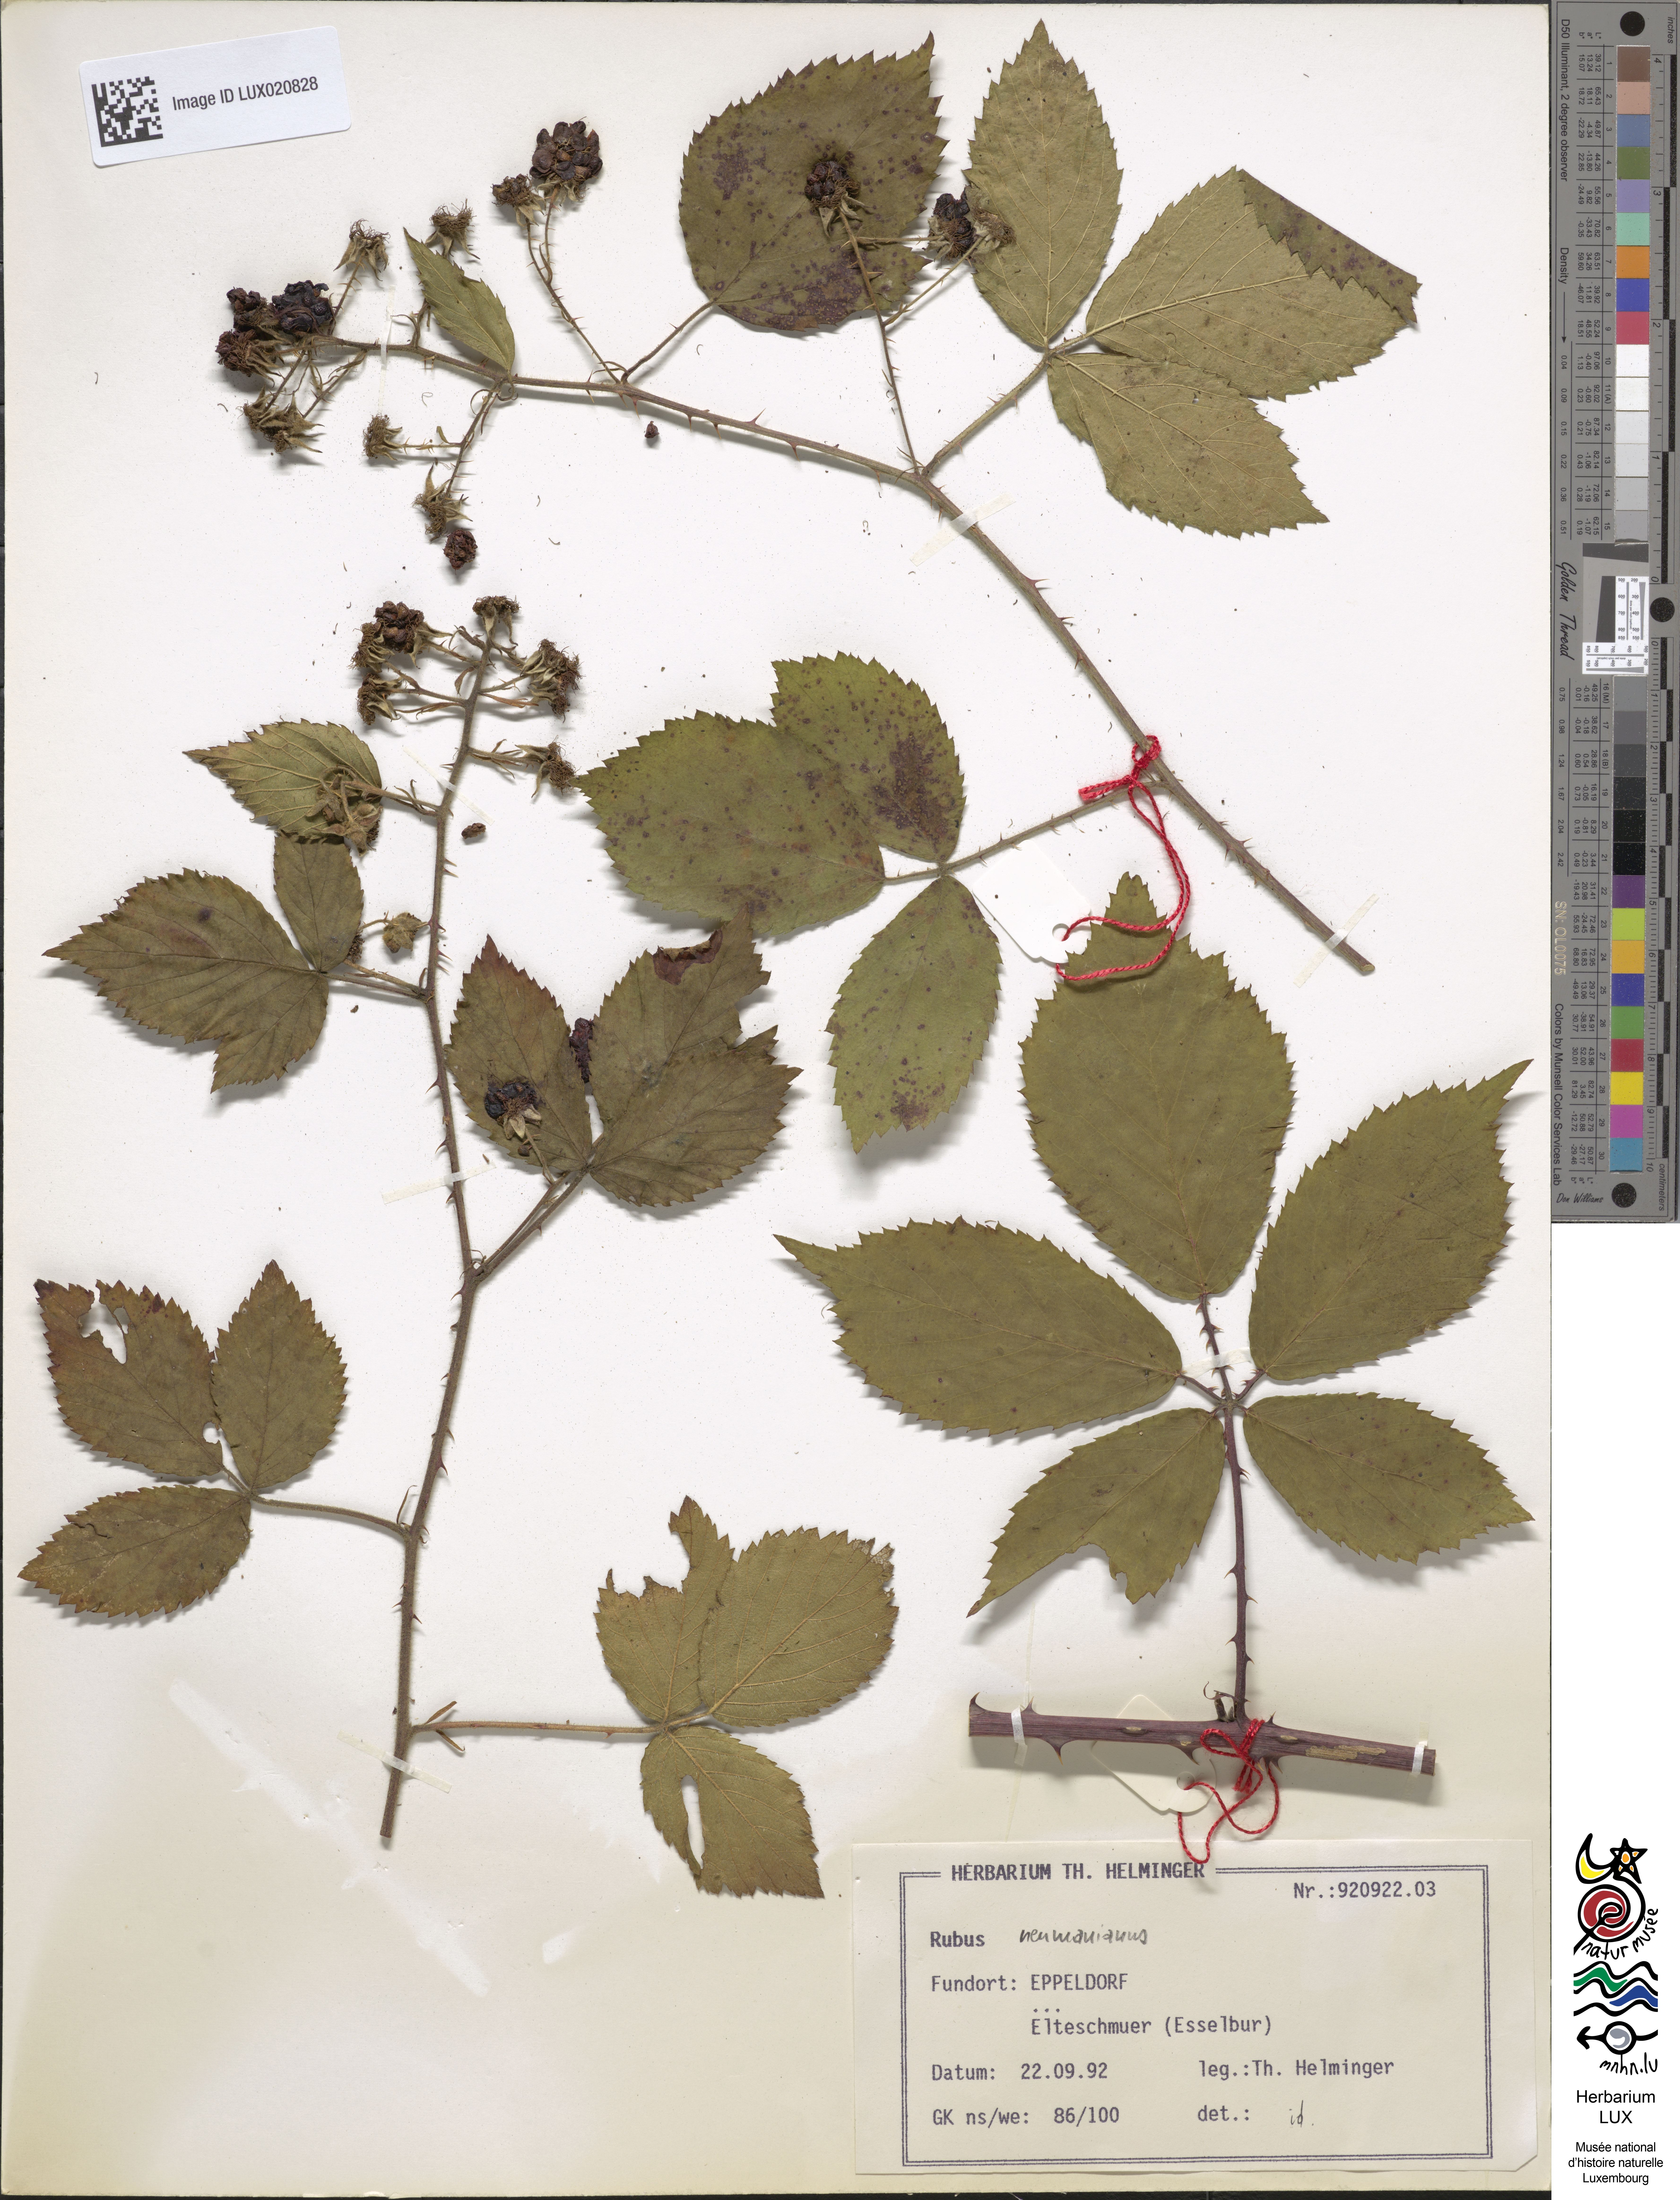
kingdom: Plantae
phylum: Tracheophyta
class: Magnoliopsida
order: Rosales
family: Rosaceae
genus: Rubus
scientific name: Rubus favonii
